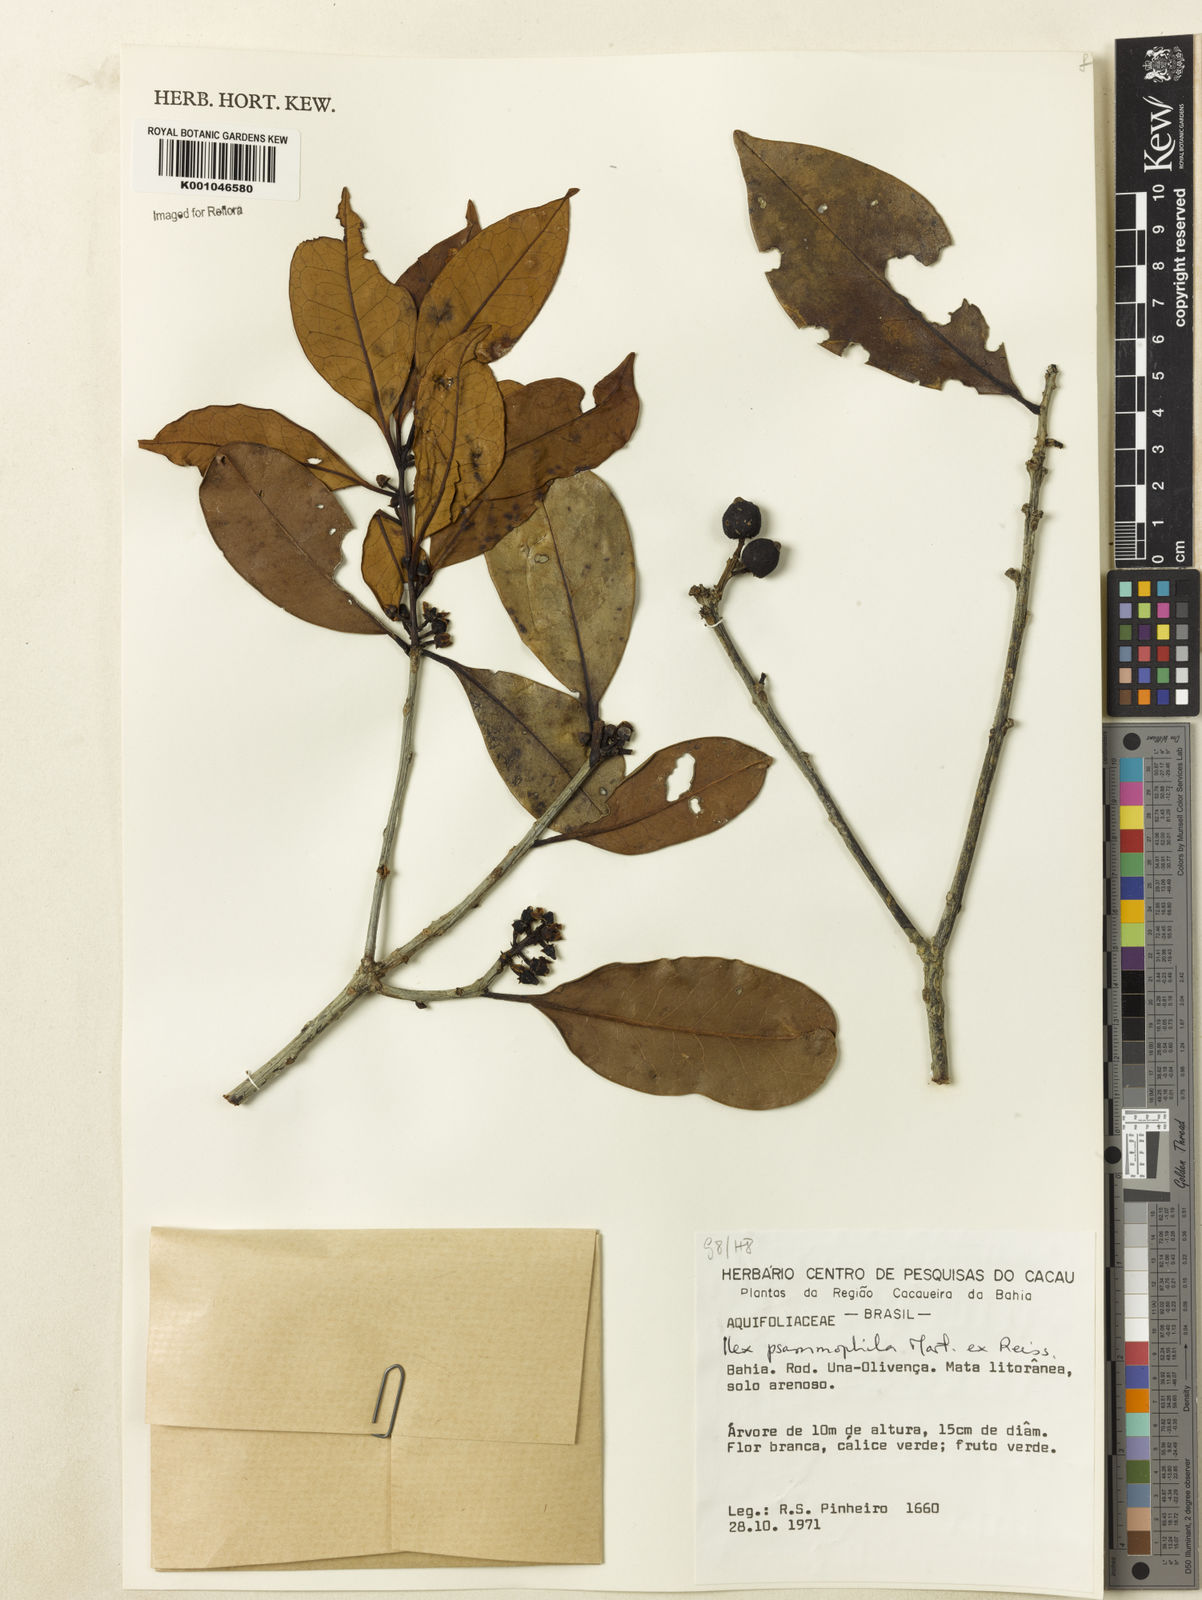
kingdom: Plantae
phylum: Tracheophyta
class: Magnoliopsida
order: Aquifoliales
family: Aquifoliaceae
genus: Ilex
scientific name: Ilex psammophila
